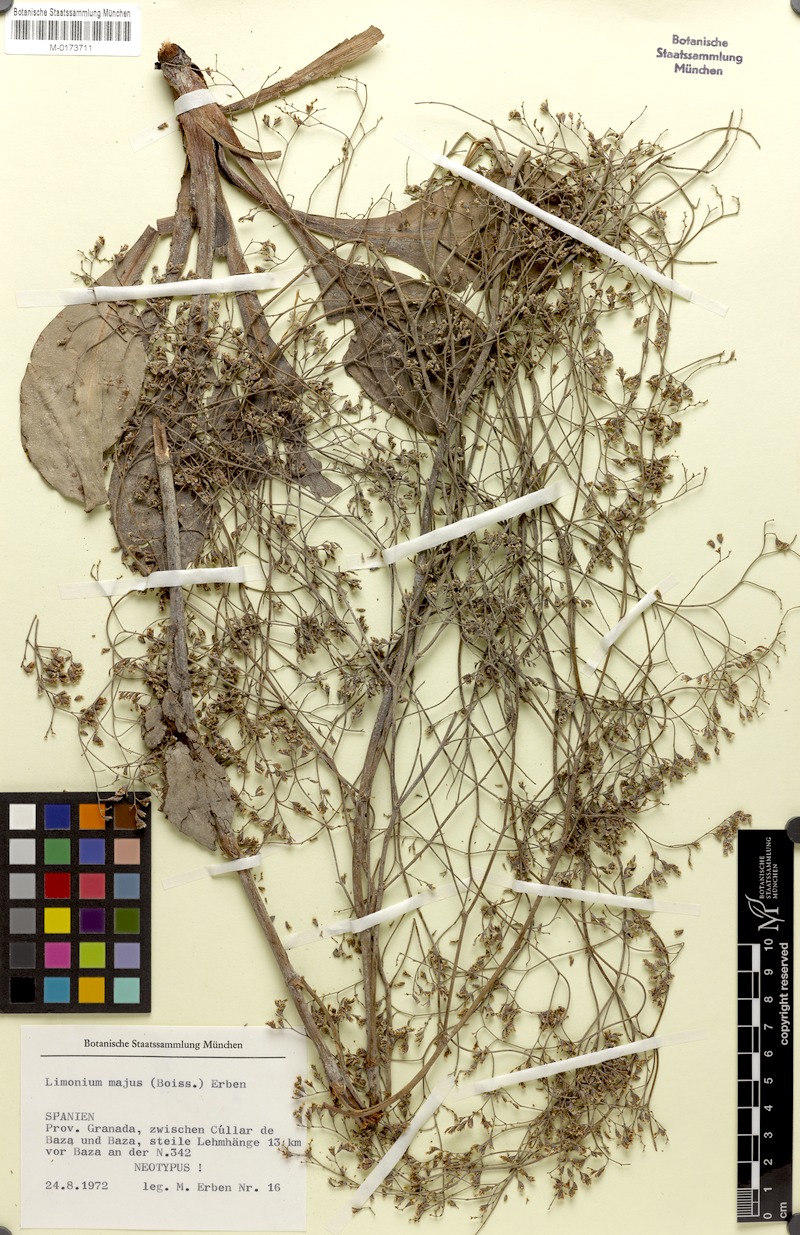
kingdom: Plantae
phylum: Tracheophyta
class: Magnoliopsida
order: Caryophyllales
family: Plumbaginaceae
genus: Limonium
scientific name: Limonium majus
